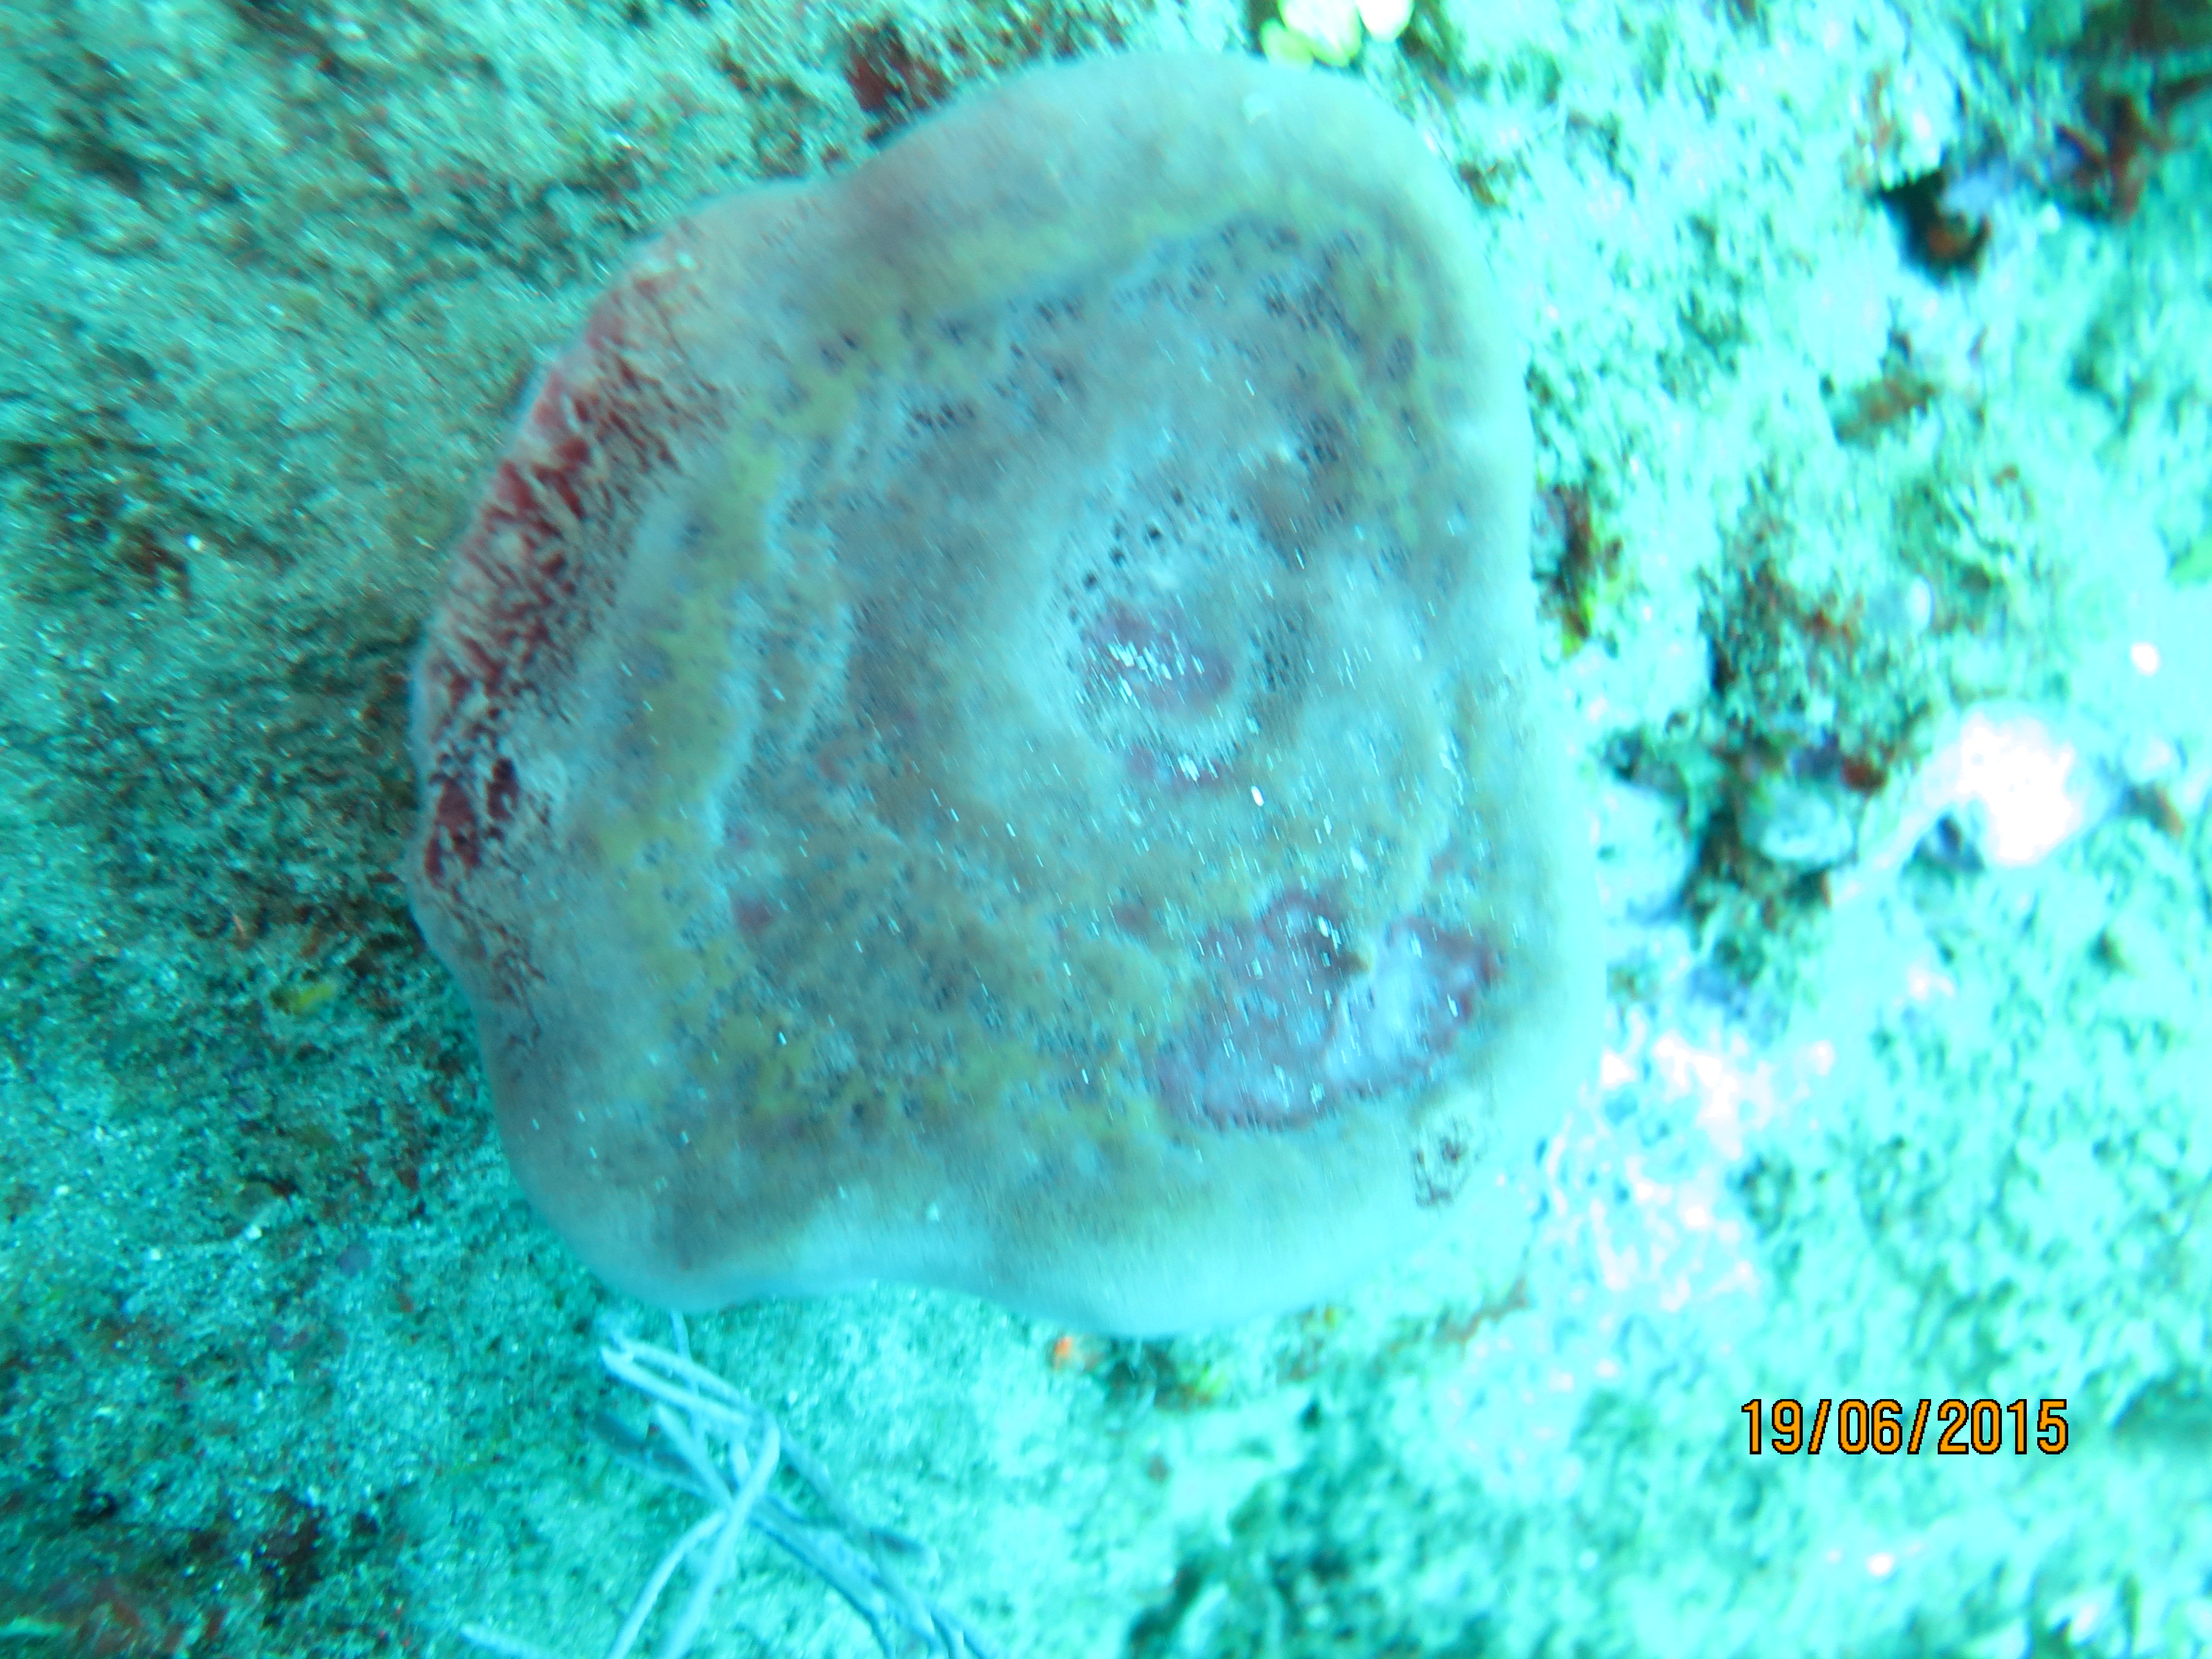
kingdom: Animalia
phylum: Porifera
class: Demospongiae
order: Suberitida
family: Halichondriidae
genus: Topsentia
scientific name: Topsentia
